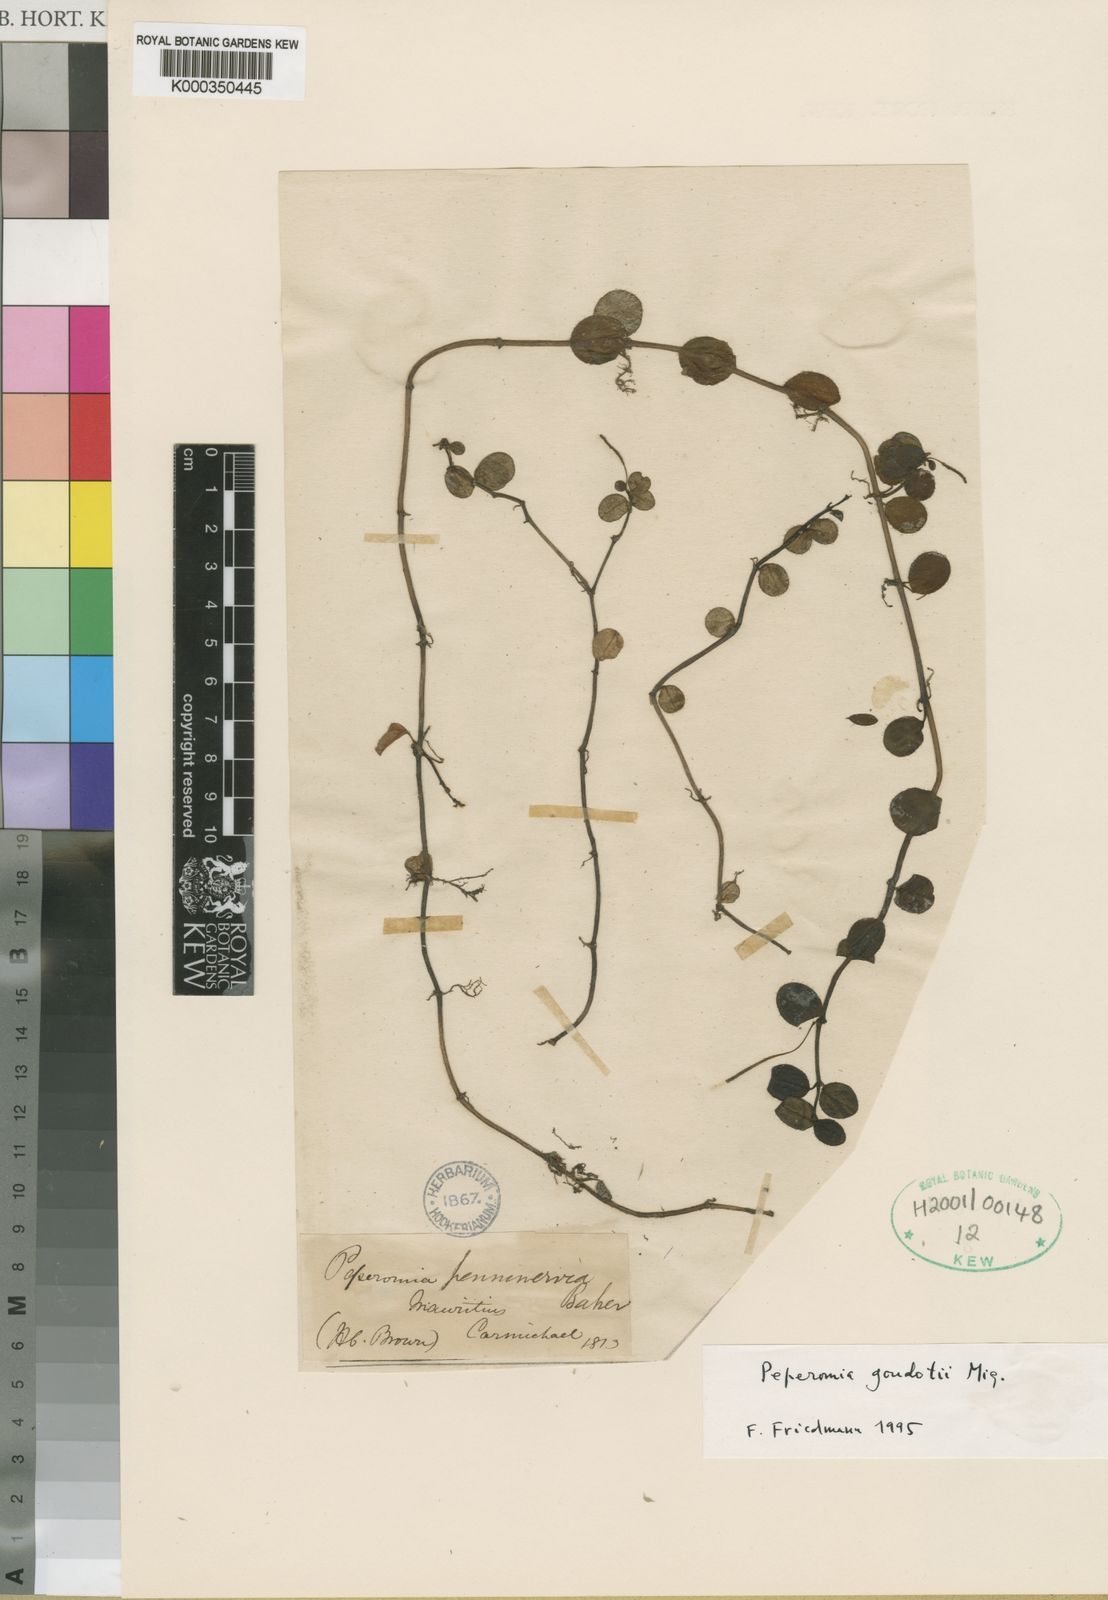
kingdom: Plantae
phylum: Tracheophyta
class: Magnoliopsida
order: Piperales
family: Piperaceae
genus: Peperomia
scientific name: Peperomia goudotii
